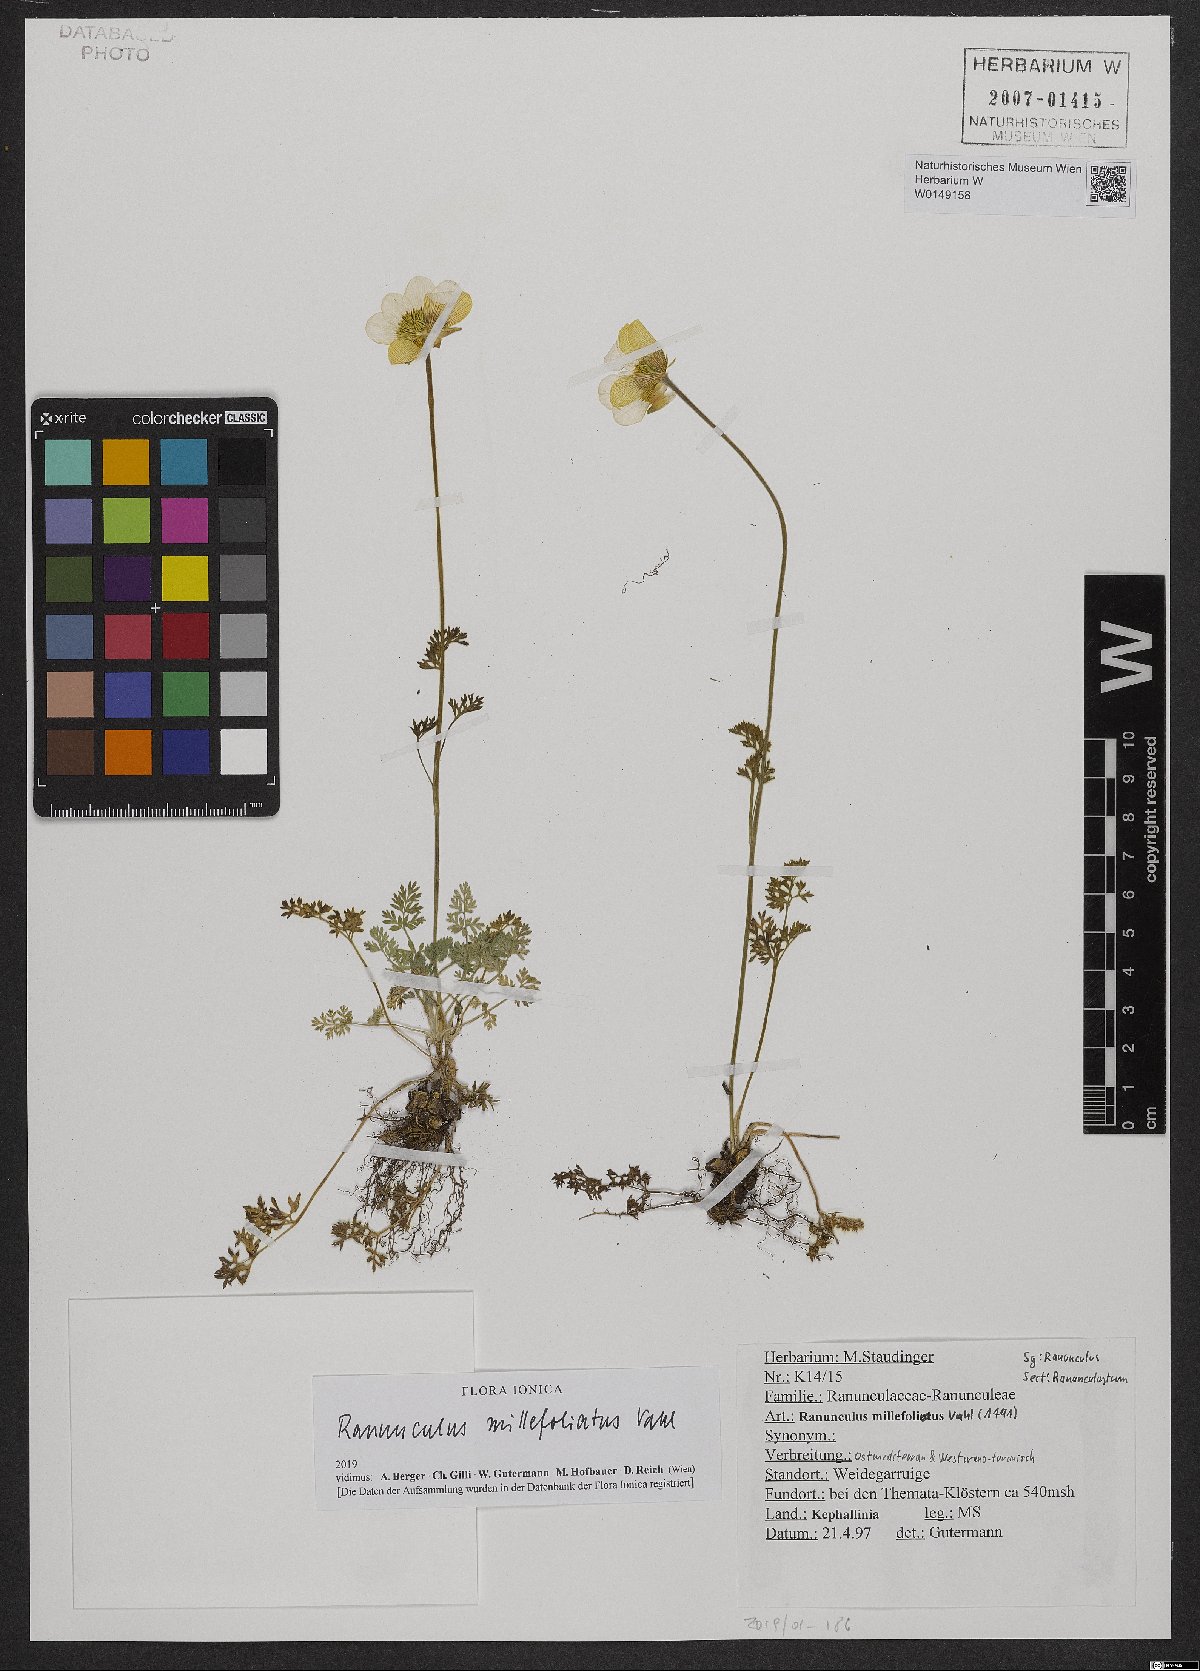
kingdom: Plantae
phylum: Tracheophyta
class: Magnoliopsida
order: Ranunculales
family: Ranunculaceae
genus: Ranunculus
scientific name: Ranunculus millefoliatus
